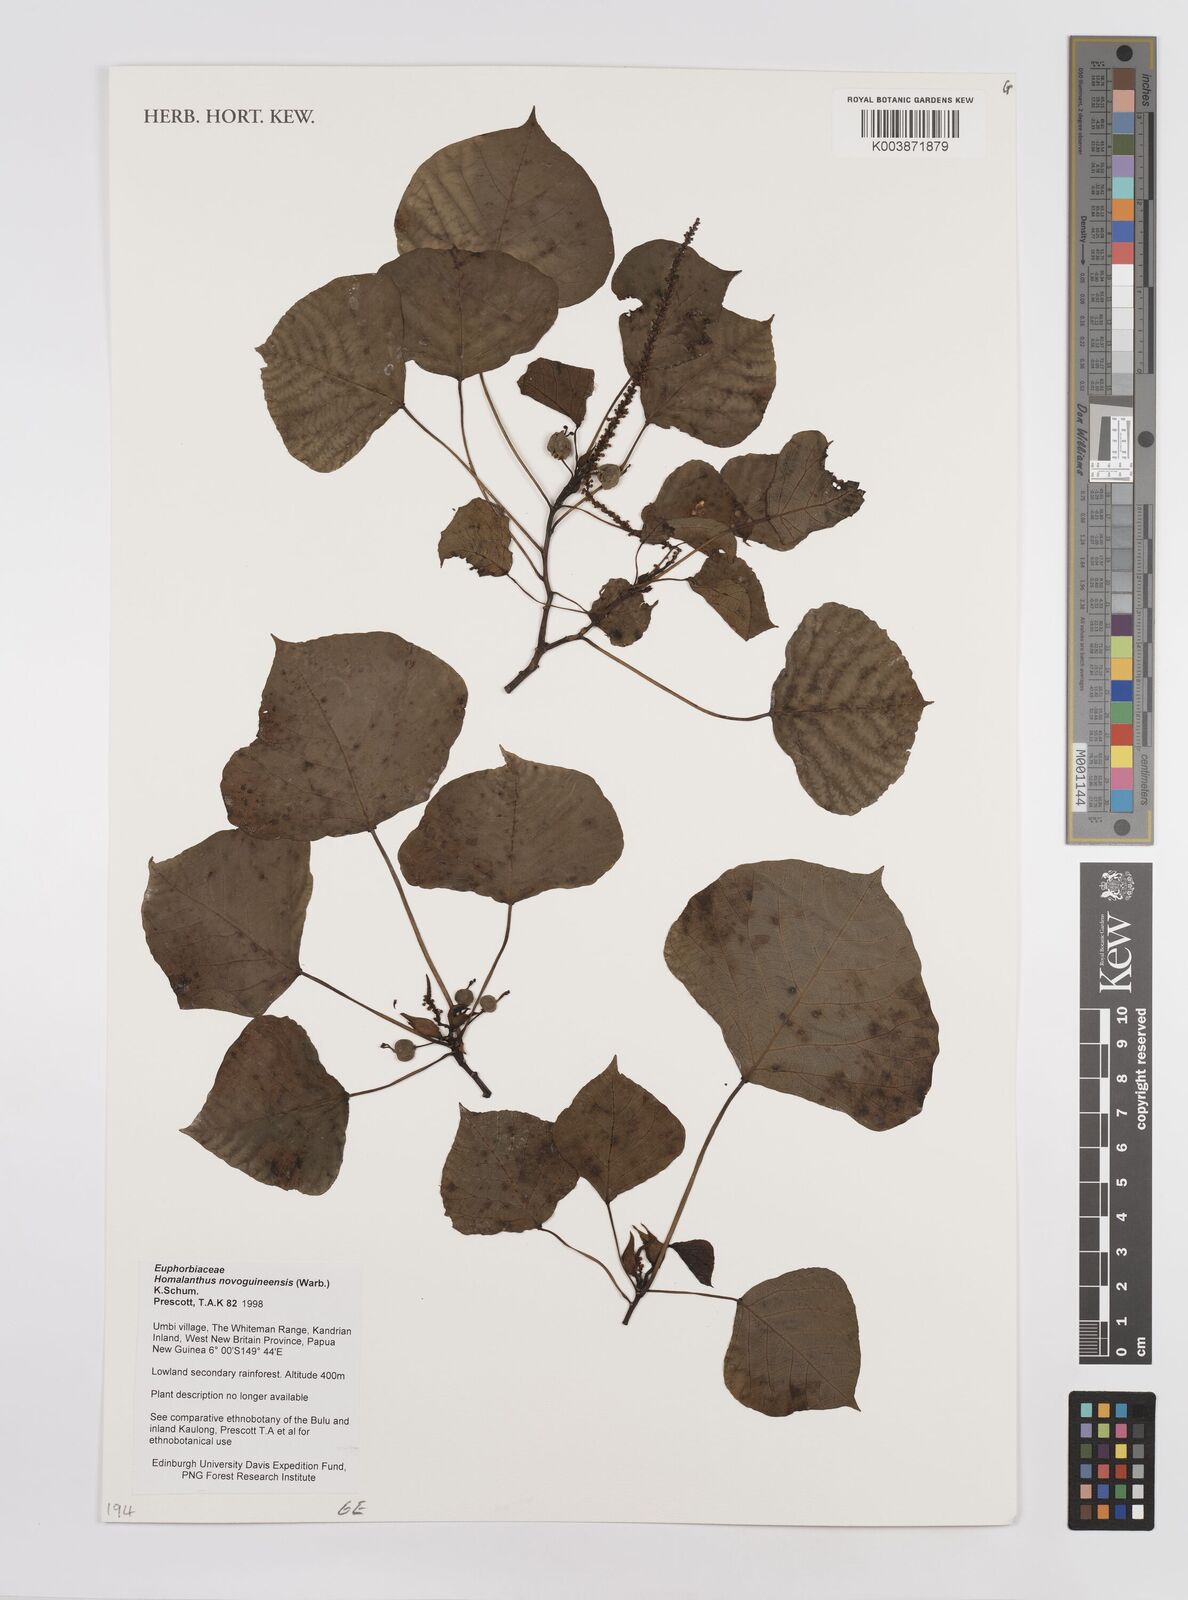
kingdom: Plantae
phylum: Tracheophyta
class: Magnoliopsida
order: Malpighiales
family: Euphorbiaceae
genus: Homalanthus
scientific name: Homalanthus novoguineensis
